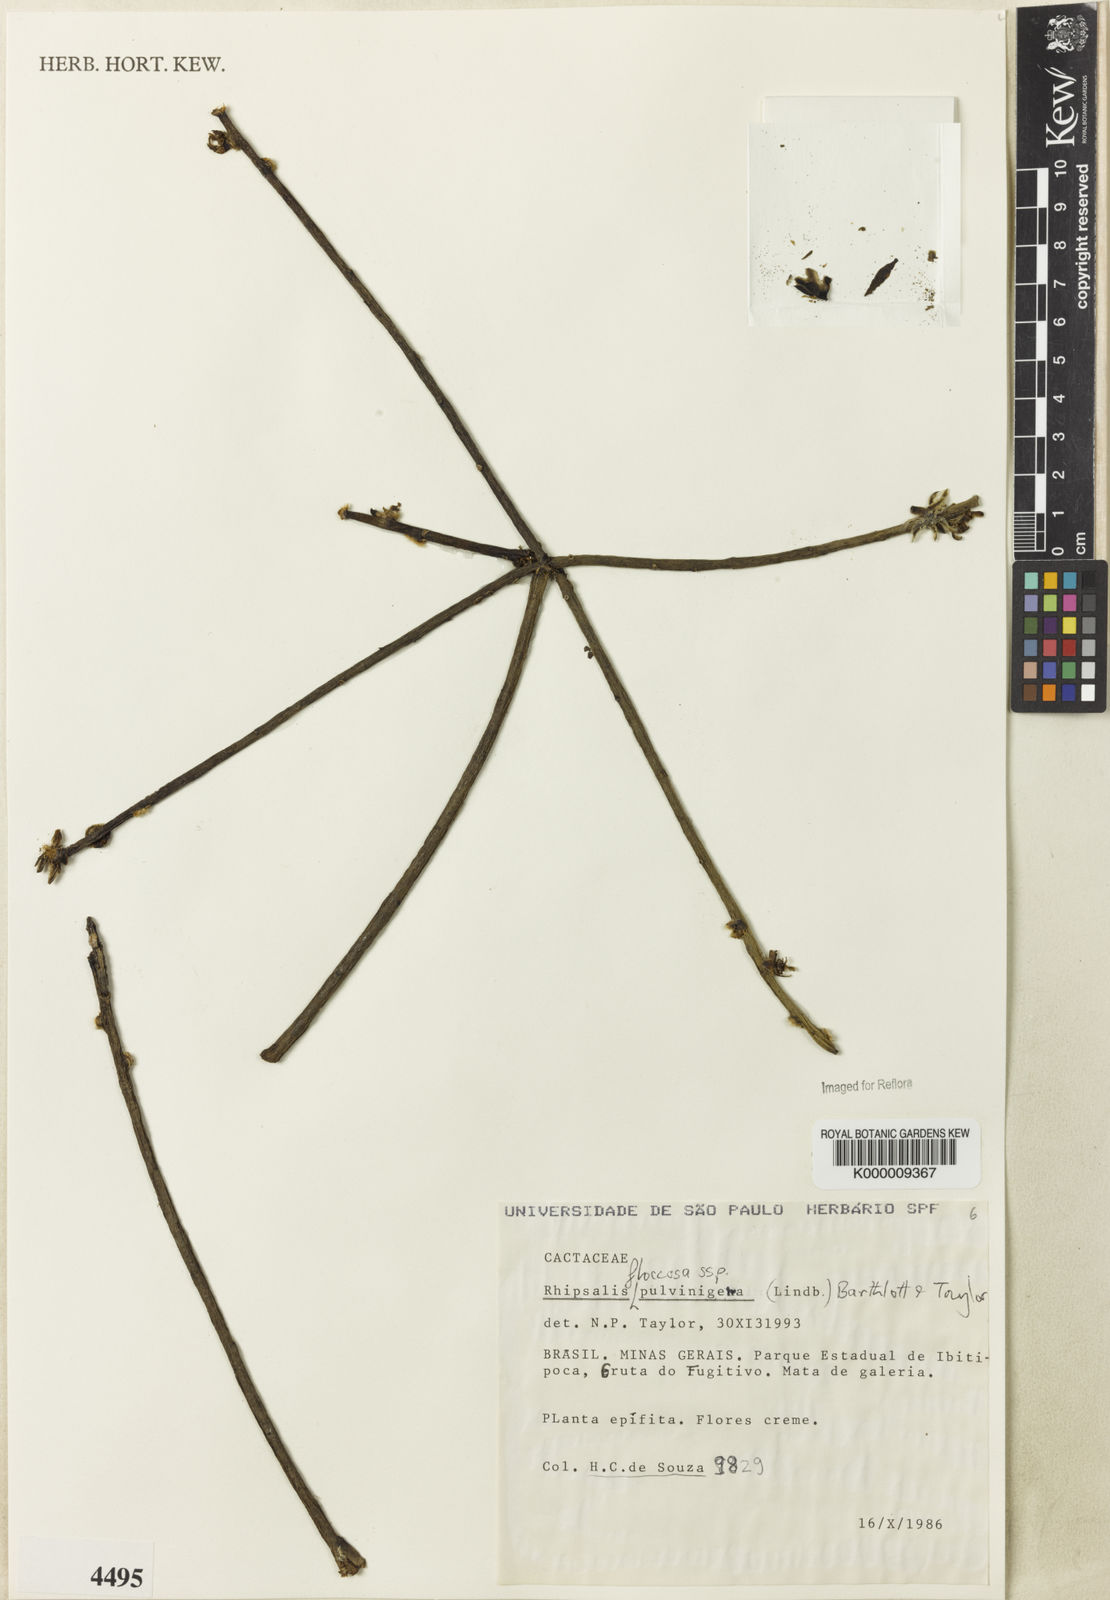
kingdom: Plantae
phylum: Tracheophyta
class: Magnoliopsida
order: Caryophyllales
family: Cactaceae
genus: Rhipsalis
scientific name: Rhipsalis floccosa
